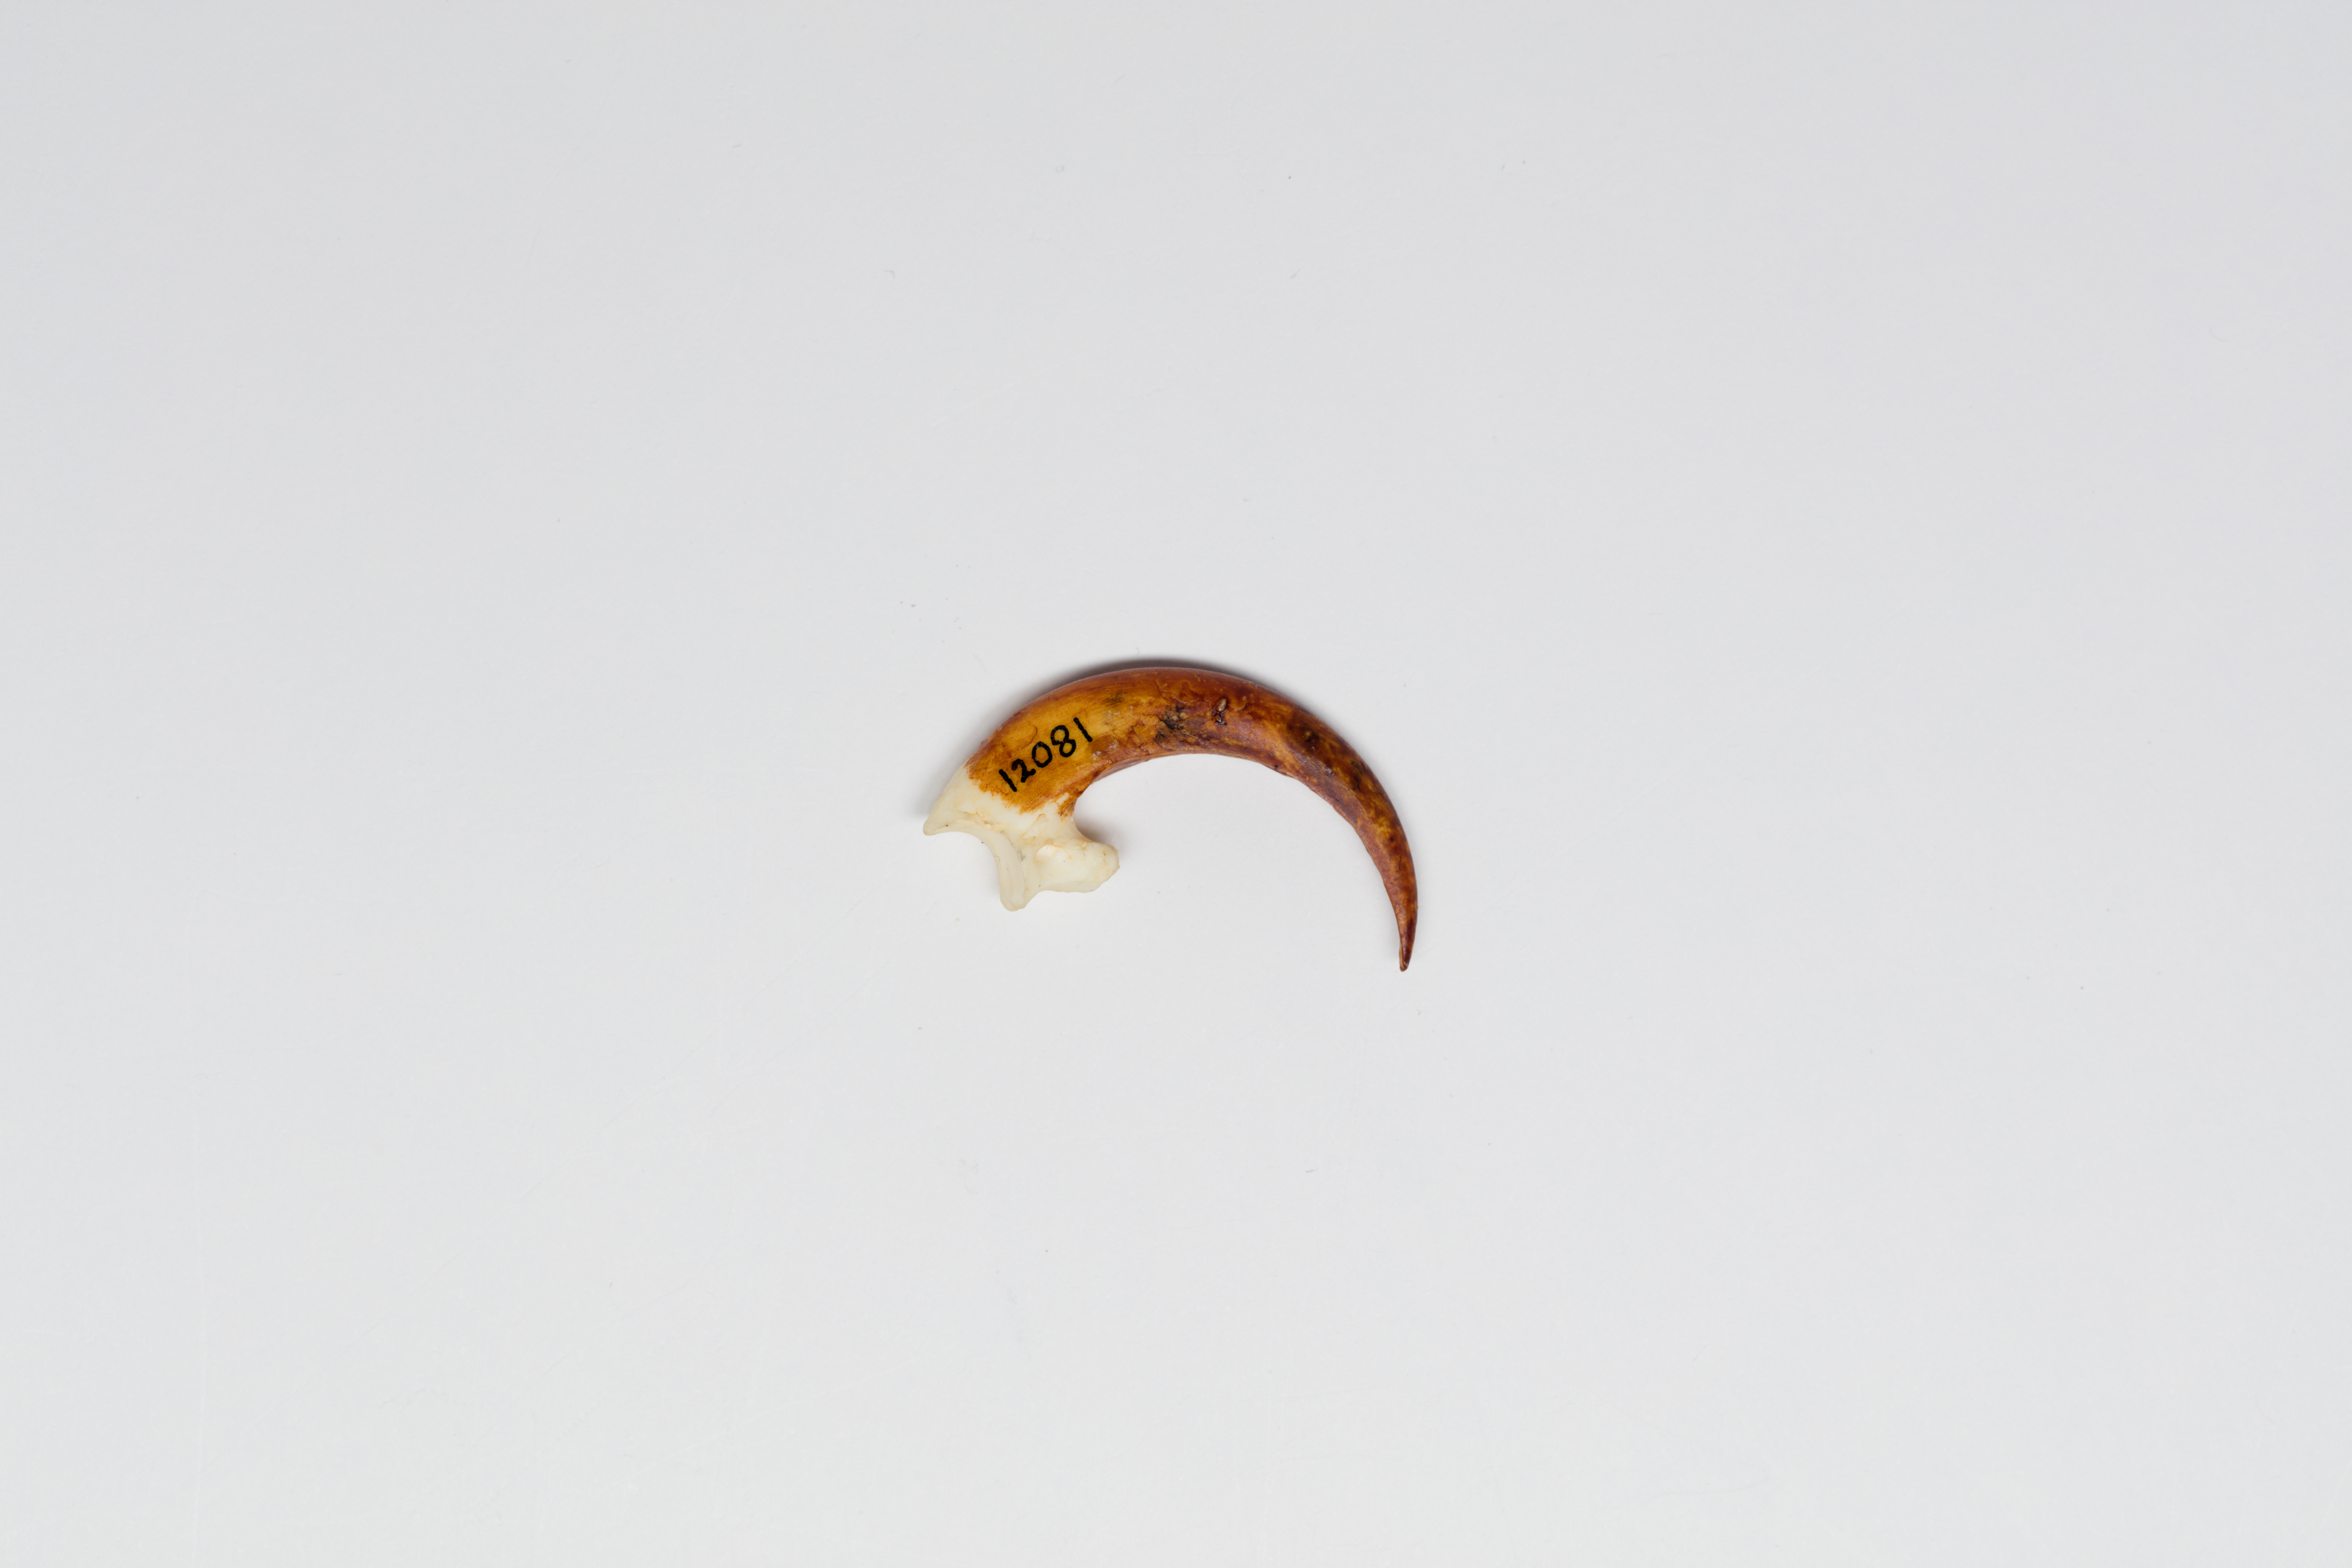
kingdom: Animalia
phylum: Chordata
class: Aves
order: Accipitriformes
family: Accipitridae
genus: Haliaeetus
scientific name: Haliaeetus leucocephalus
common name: Bald eagle
